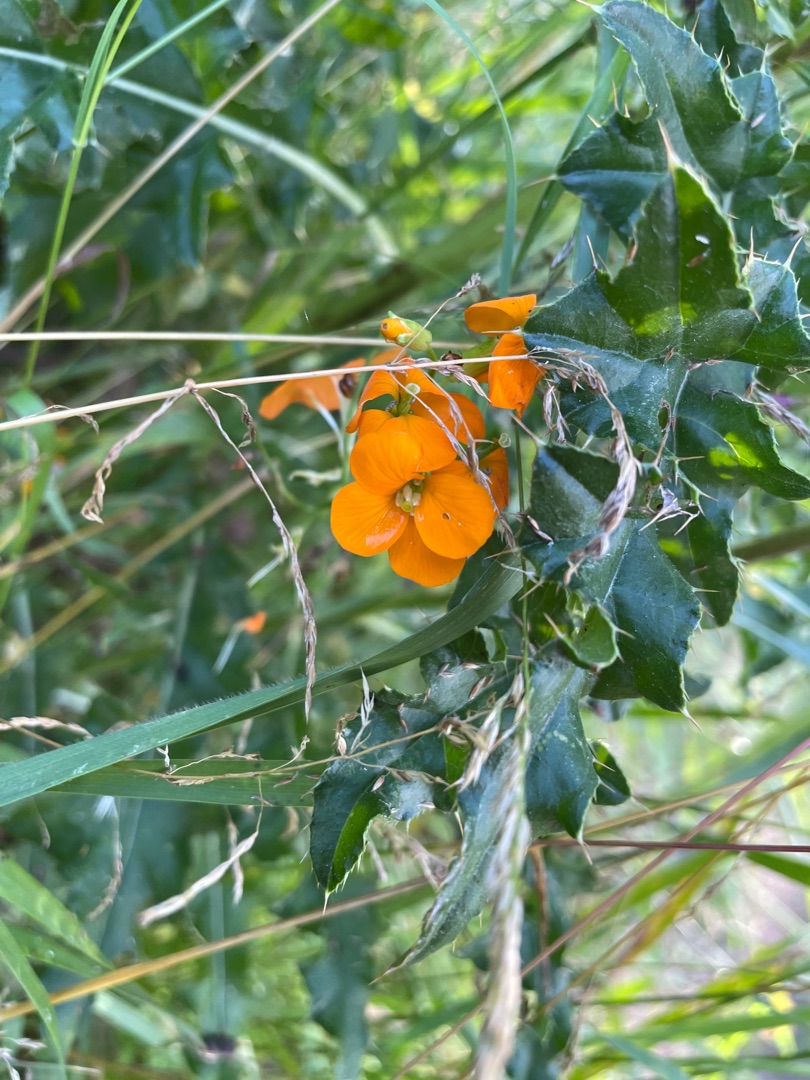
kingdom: Plantae
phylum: Tracheophyta
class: Magnoliopsida
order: Brassicales
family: Brassicaceae
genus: Erysimum
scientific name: Erysimum marshallii
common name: Sibirisk hjørneklap
